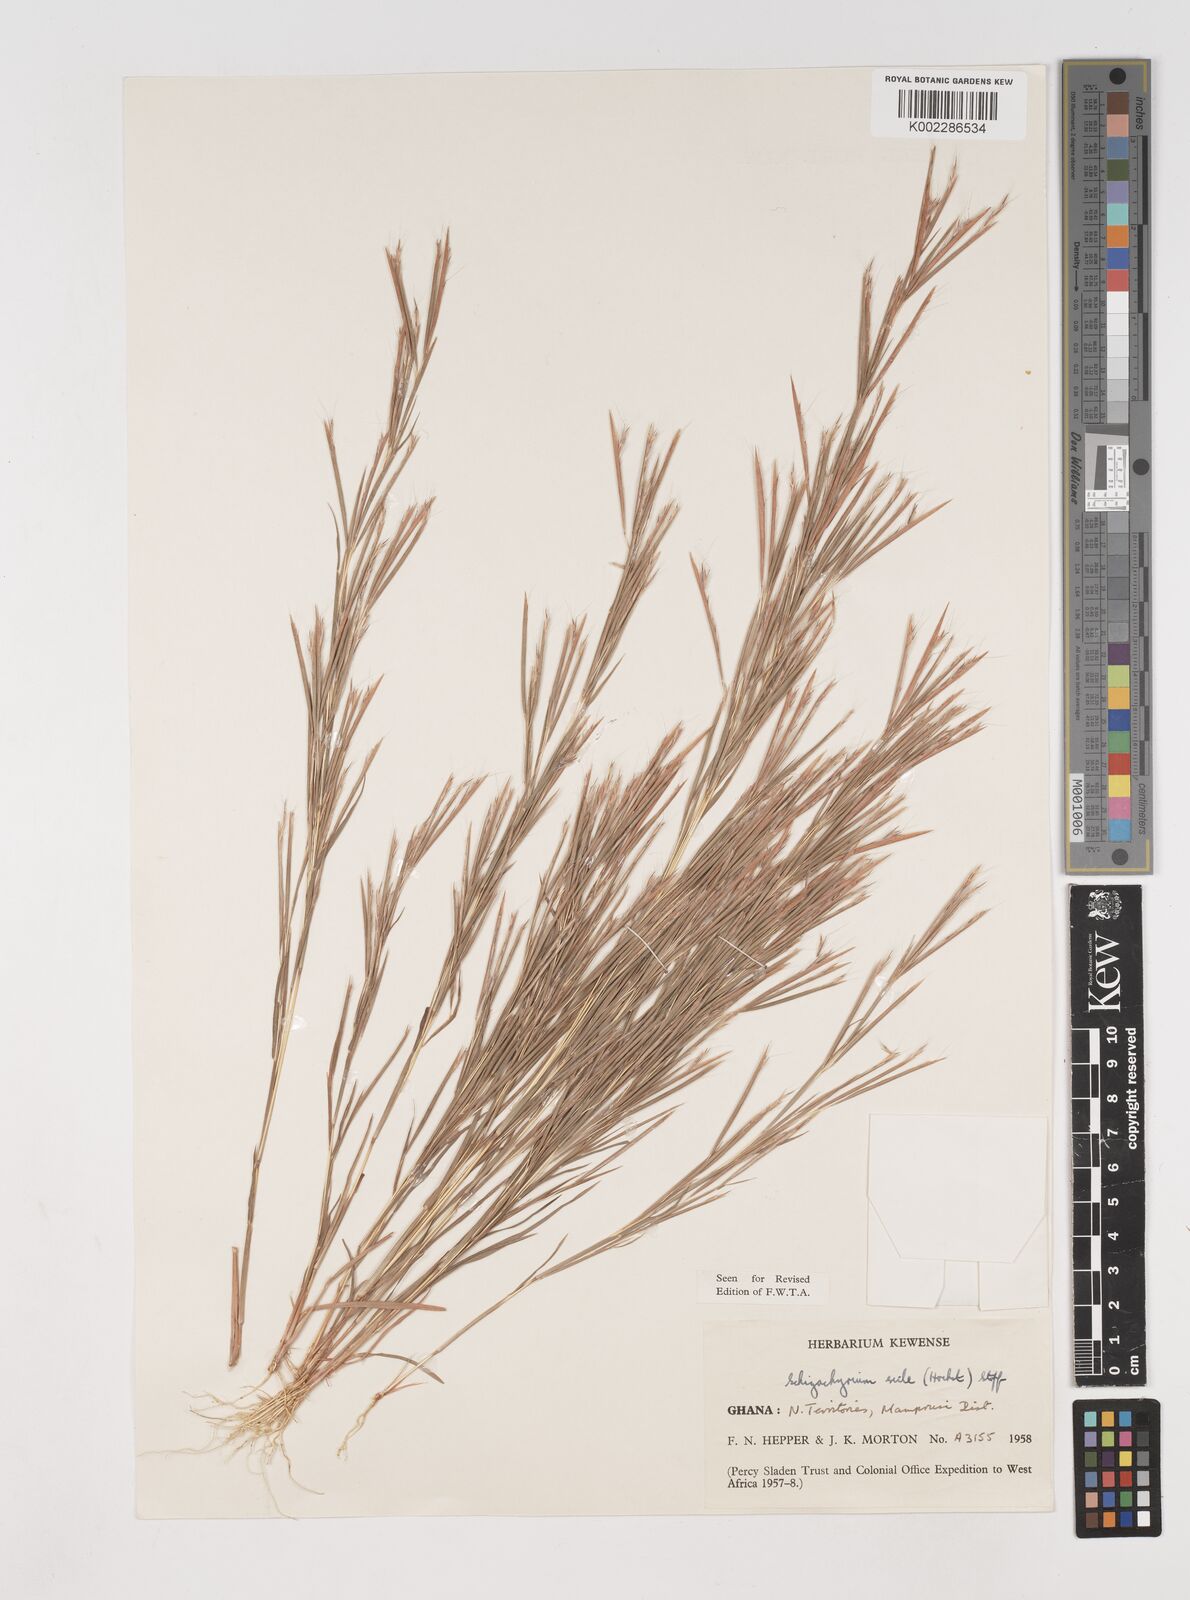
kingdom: Plantae
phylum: Tracheophyta
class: Liliopsida
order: Poales
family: Poaceae
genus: Schizachyrium
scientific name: Schizachyrium exile
